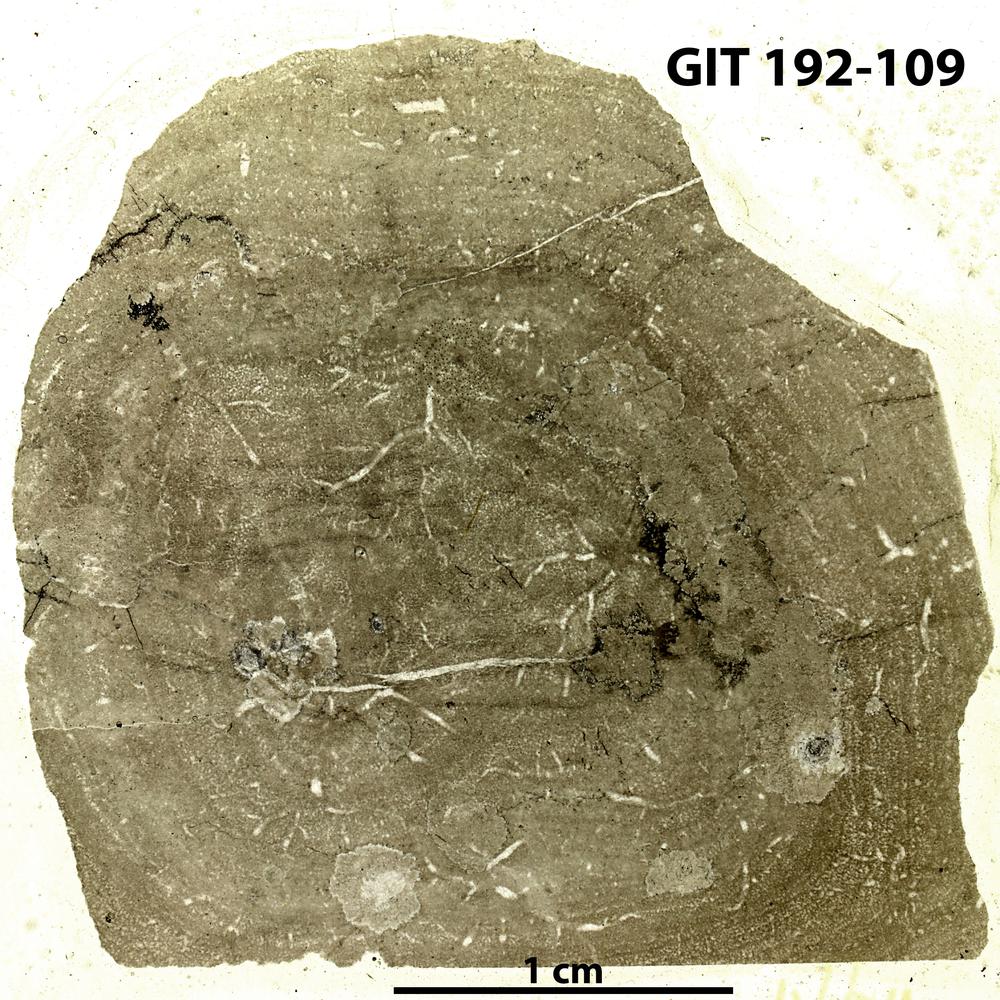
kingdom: Animalia
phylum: Porifera
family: Densastromatidae
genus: Araneosustroma
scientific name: Araneosustroma
